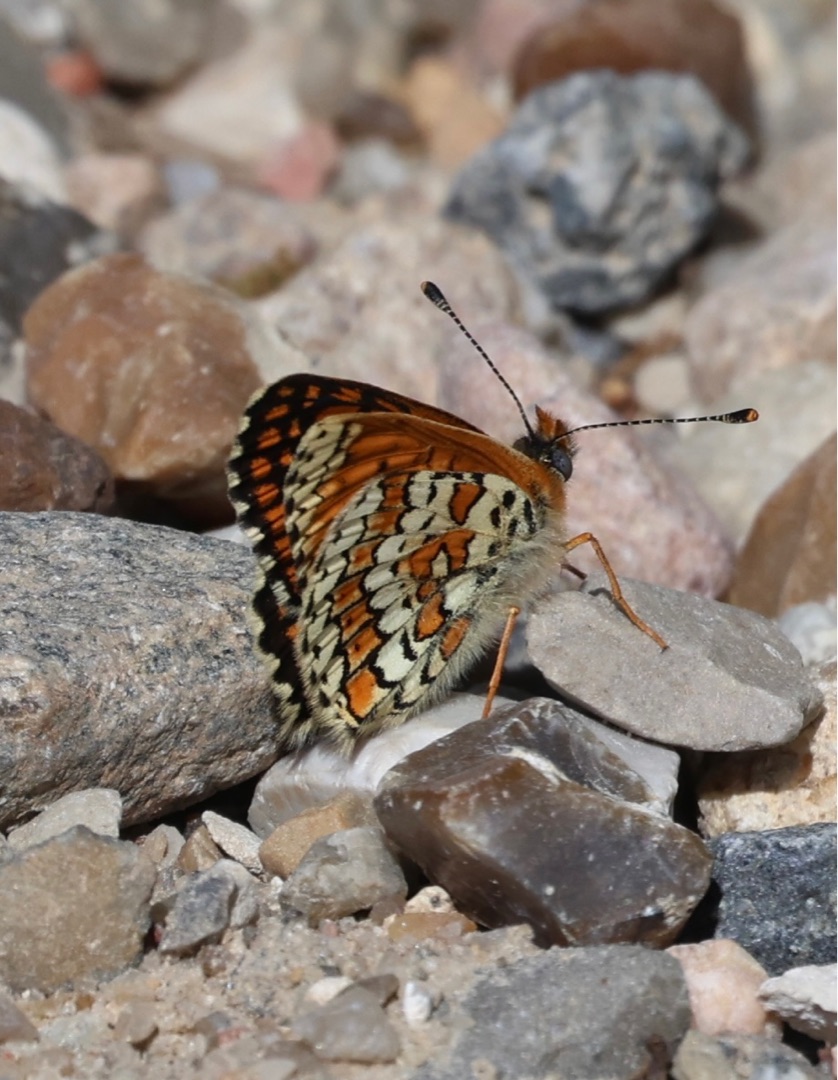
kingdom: Animalia
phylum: Arthropoda
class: Insecta
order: Lepidoptera
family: Nymphalidae
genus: Melitaea
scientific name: Melitaea cinxia
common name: Okkergul pletvinge
